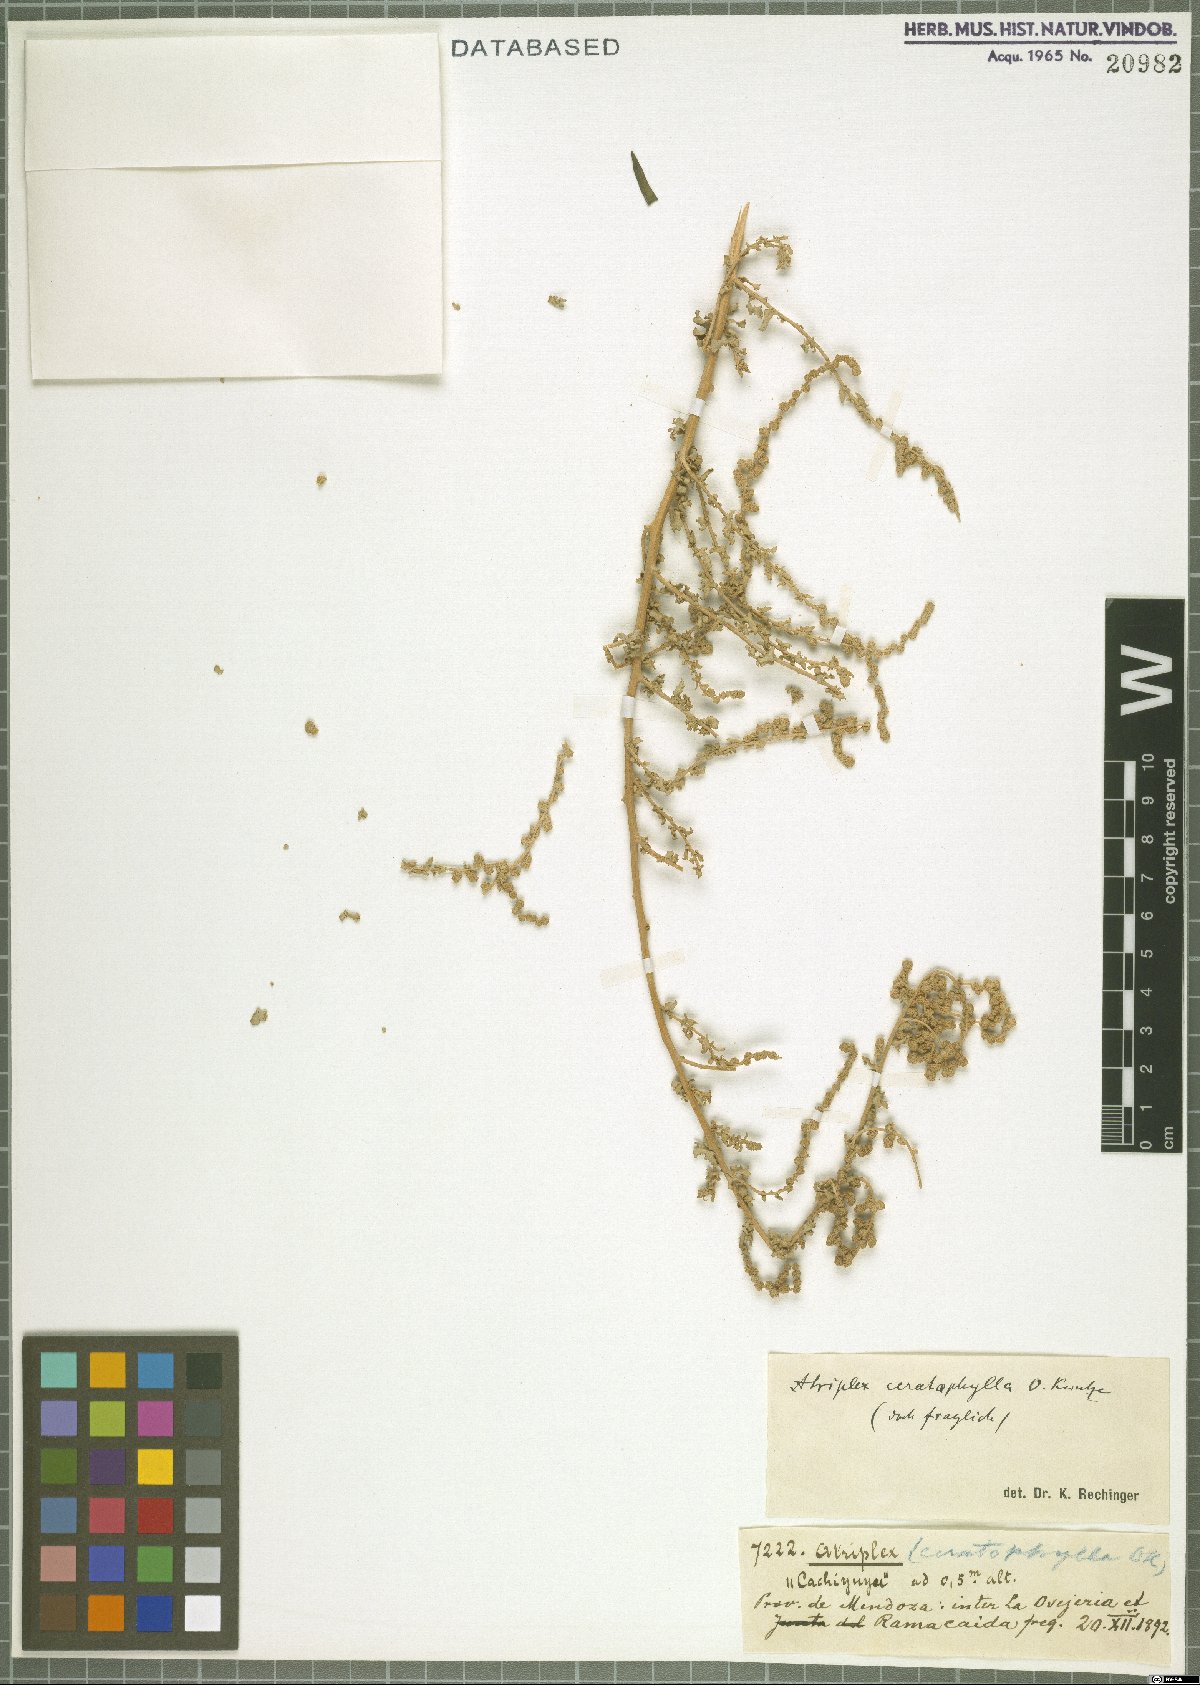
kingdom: Plantae
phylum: Tracheophyta
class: Magnoliopsida
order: Caryophyllales
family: Amaranthaceae
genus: Atriplex
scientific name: Atriplex lampa
